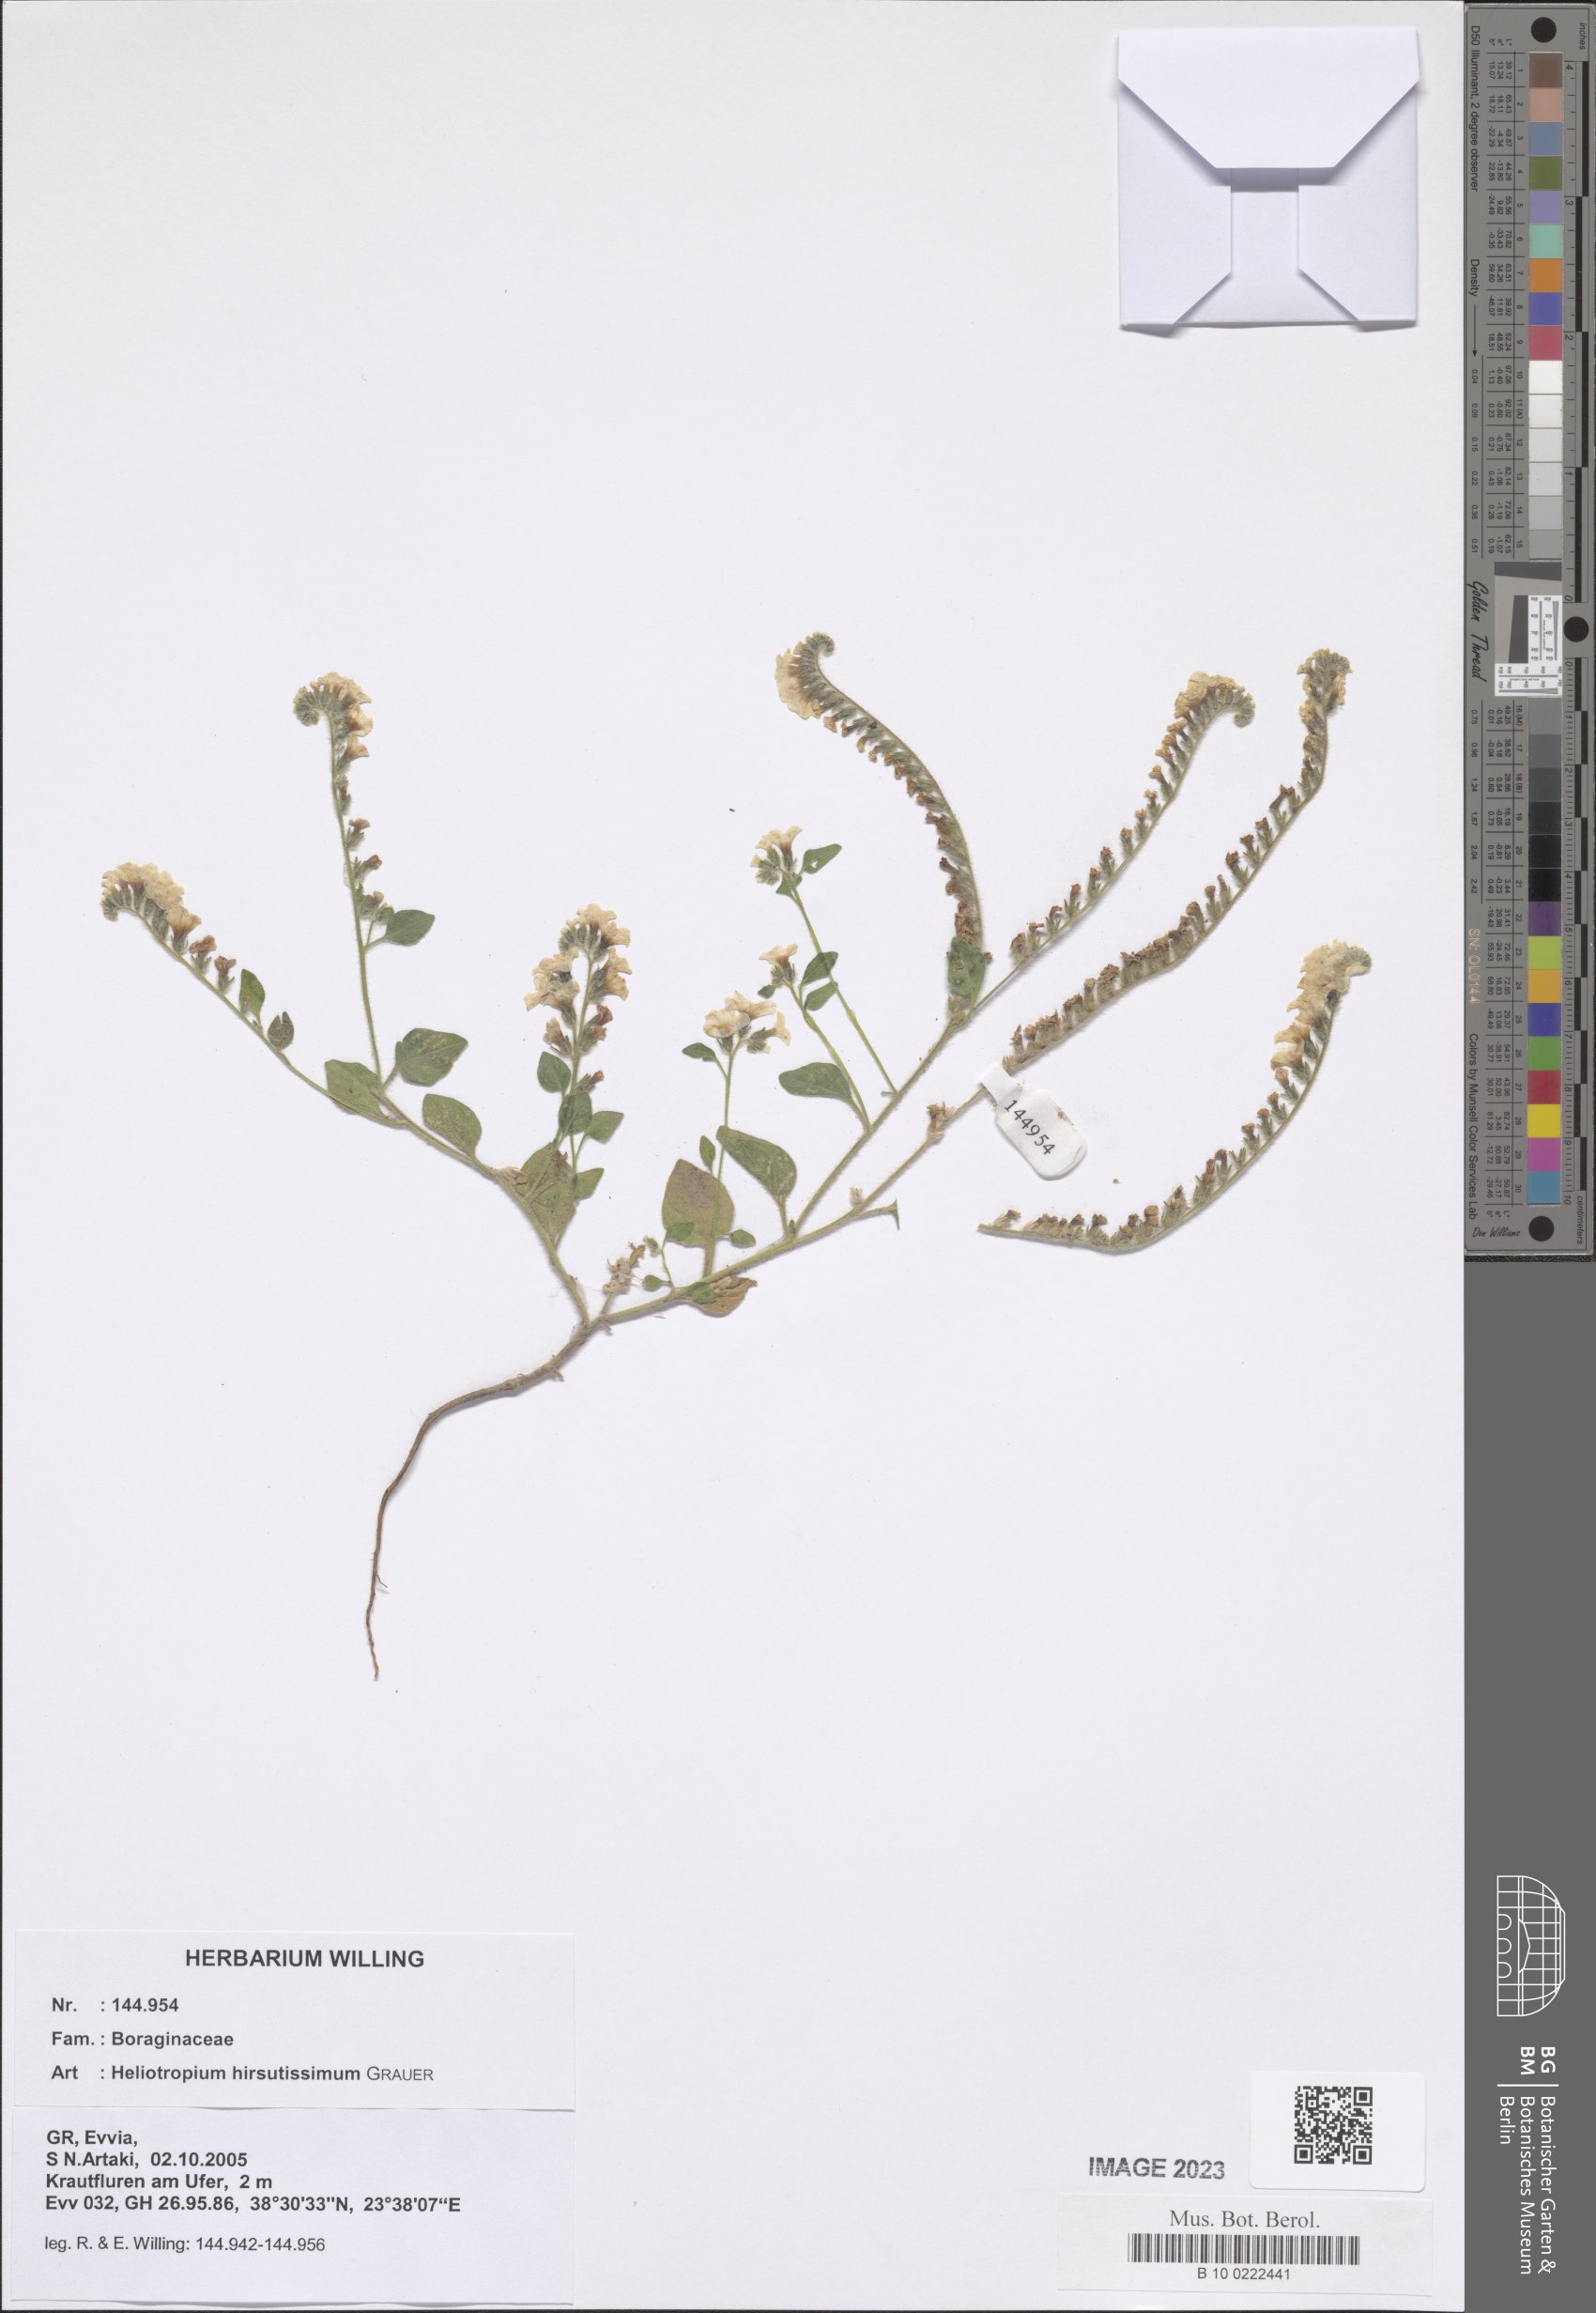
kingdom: Plantae
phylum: Tracheophyta
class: Magnoliopsida
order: Boraginales
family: Heliotropiaceae
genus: Heliotropium
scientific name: Heliotropium hirsutissimum
